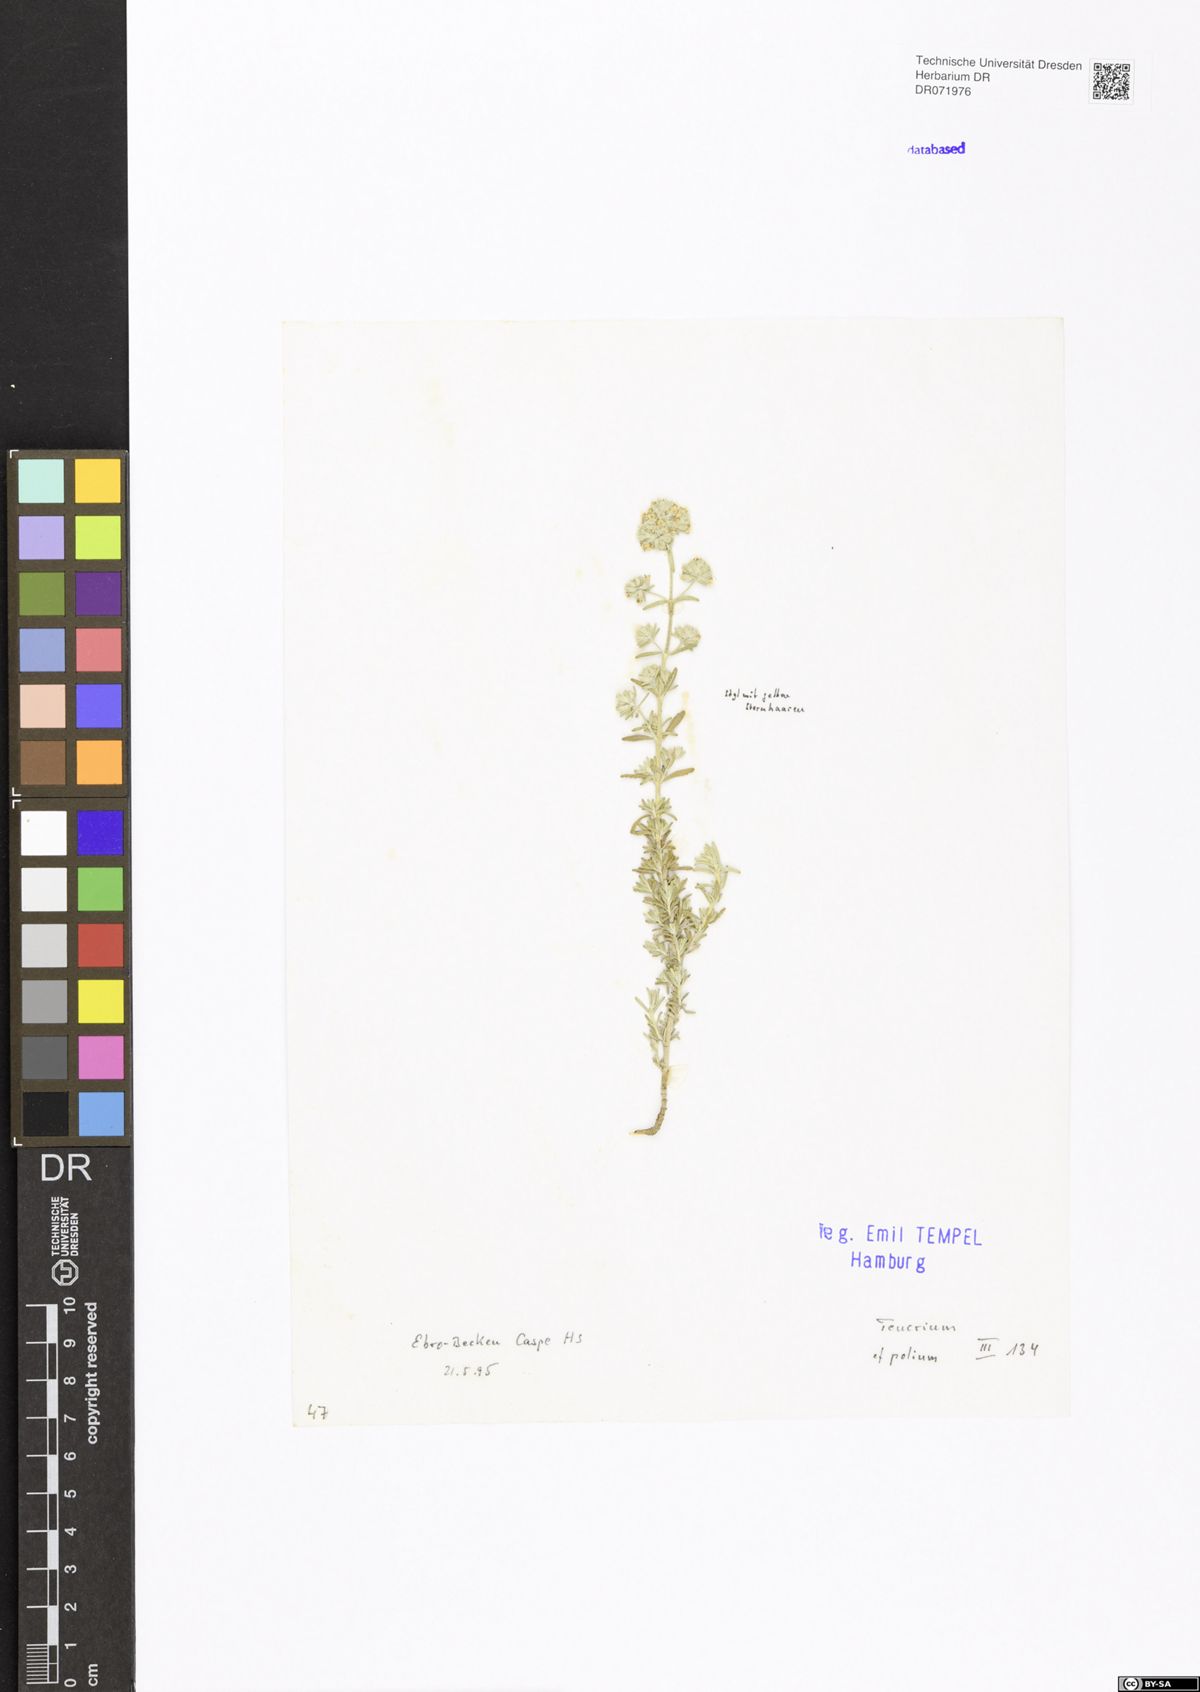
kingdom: Plantae
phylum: Tracheophyta
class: Magnoliopsida
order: Lamiales
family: Lamiaceae
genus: Teucrium
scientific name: Teucrium polium
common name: Poley
